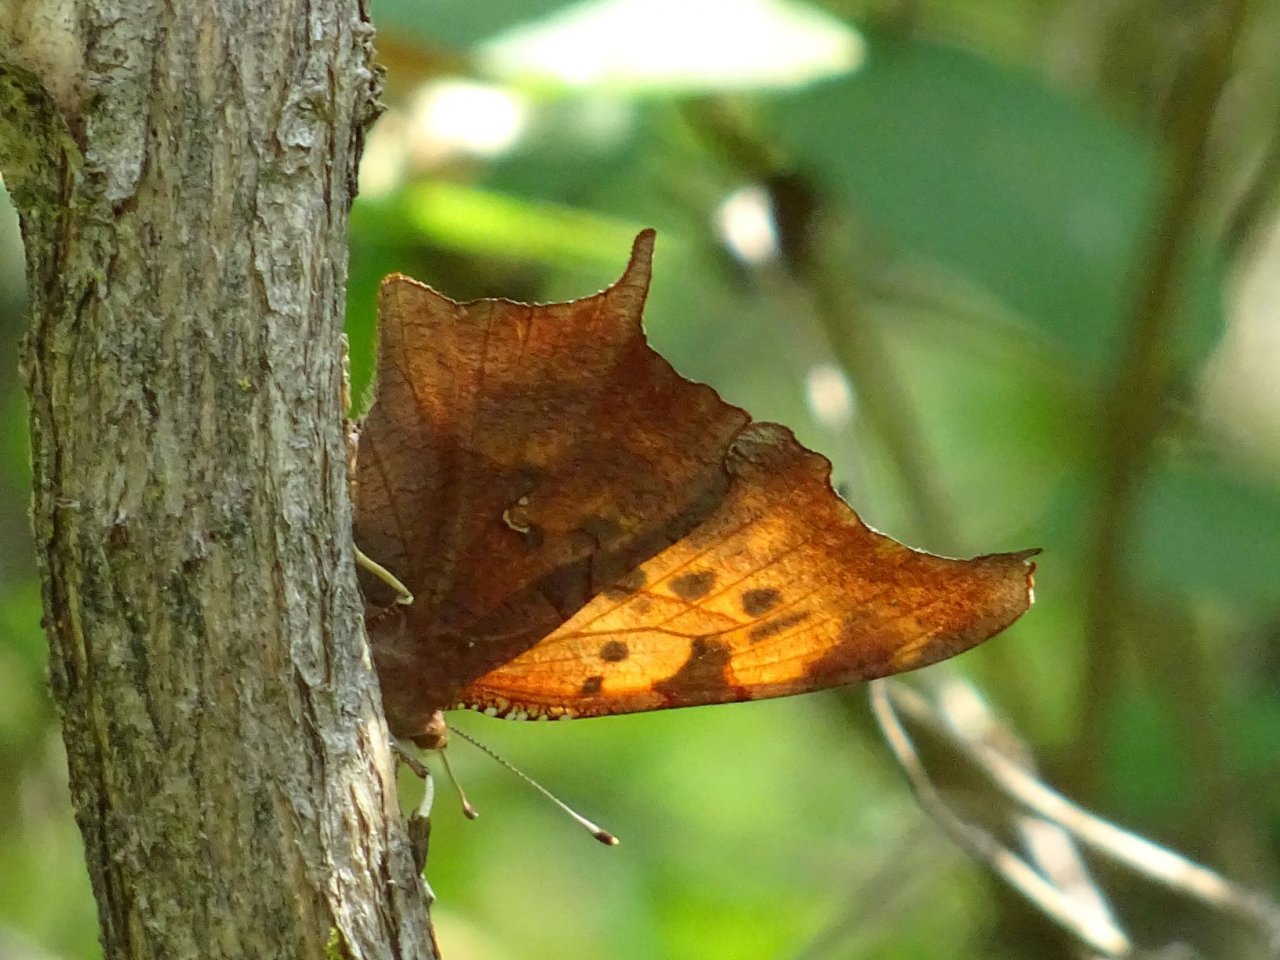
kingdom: Animalia
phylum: Arthropoda
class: Insecta
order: Lepidoptera
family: Nymphalidae
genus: Polygonia
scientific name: Polygonia interrogationis
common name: Question Mark
